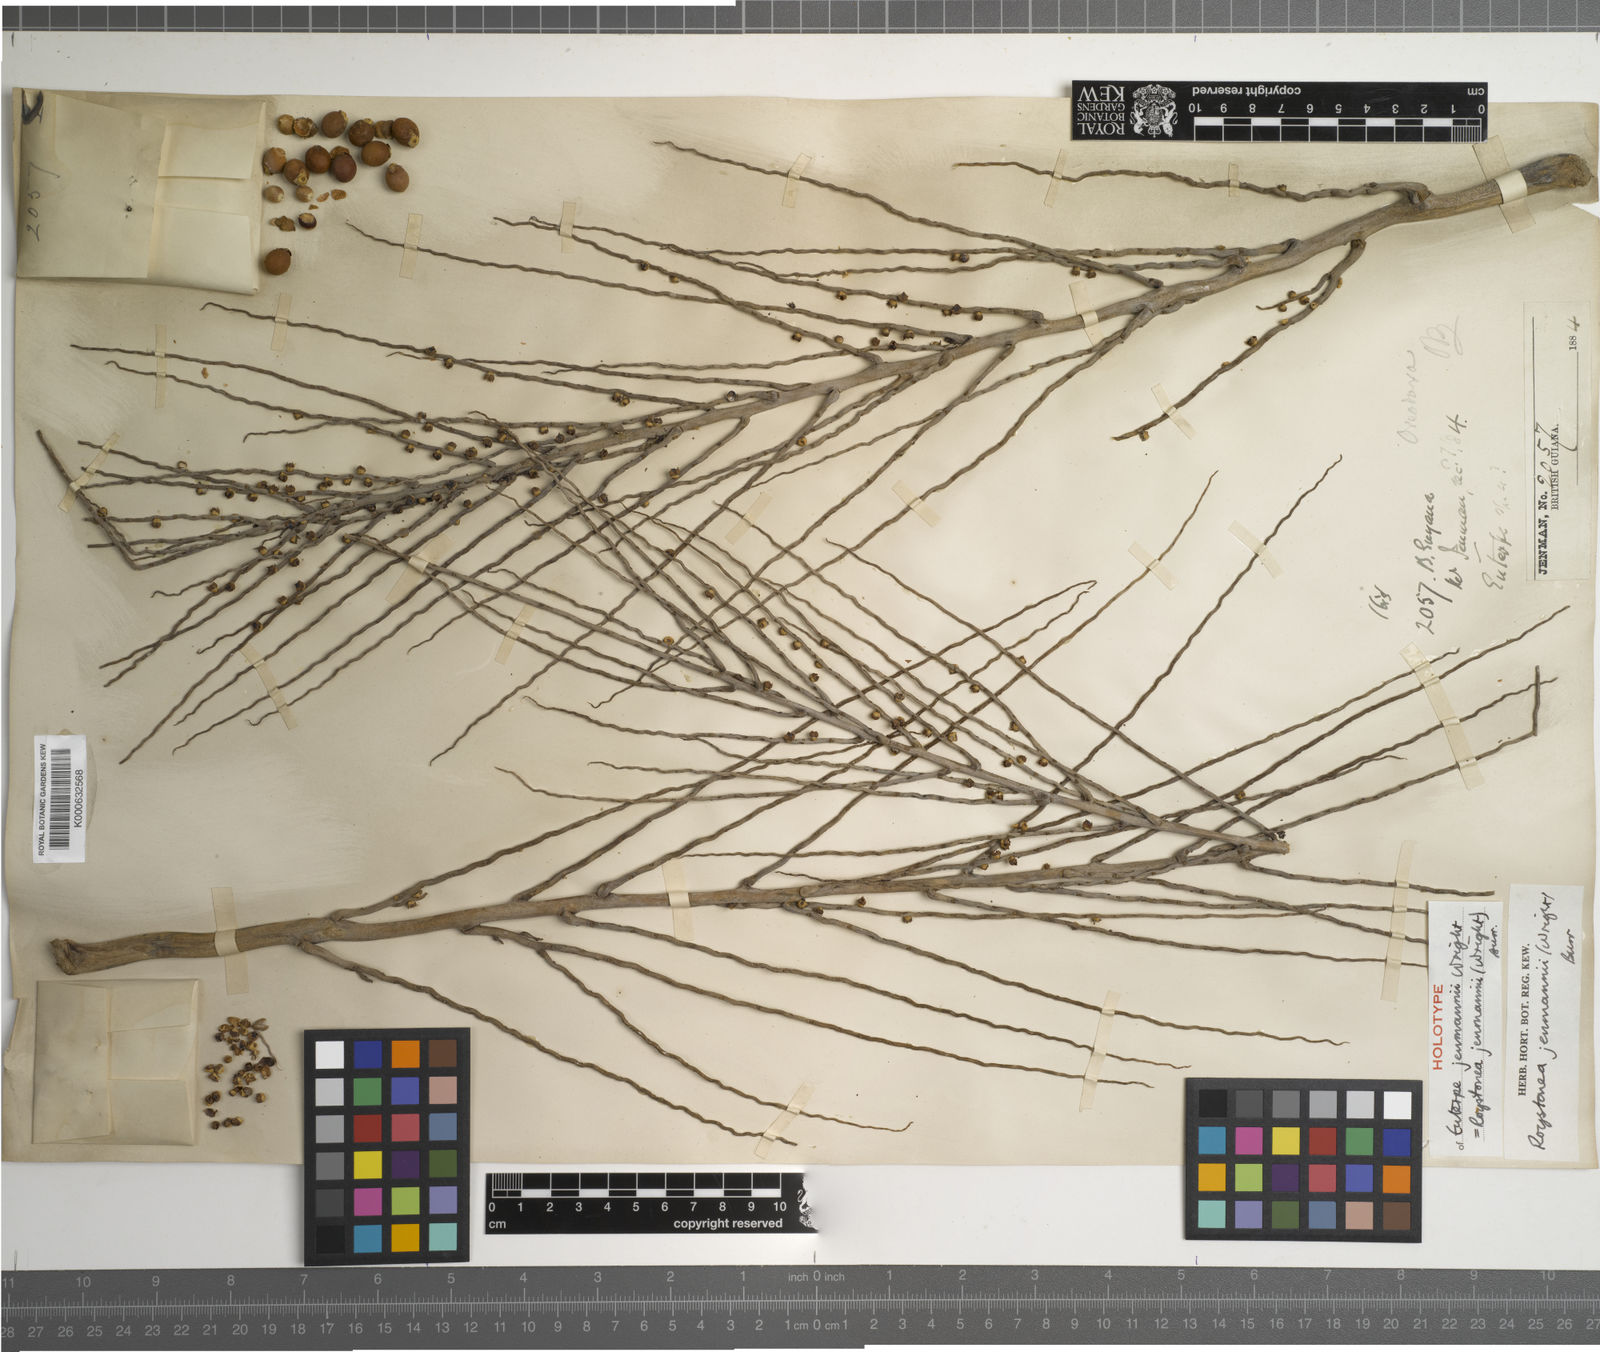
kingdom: Plantae
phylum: Tracheophyta
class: Liliopsida
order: Arecales
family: Arecaceae
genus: Roystonea
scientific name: Roystonea regia
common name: Florida royal palm
